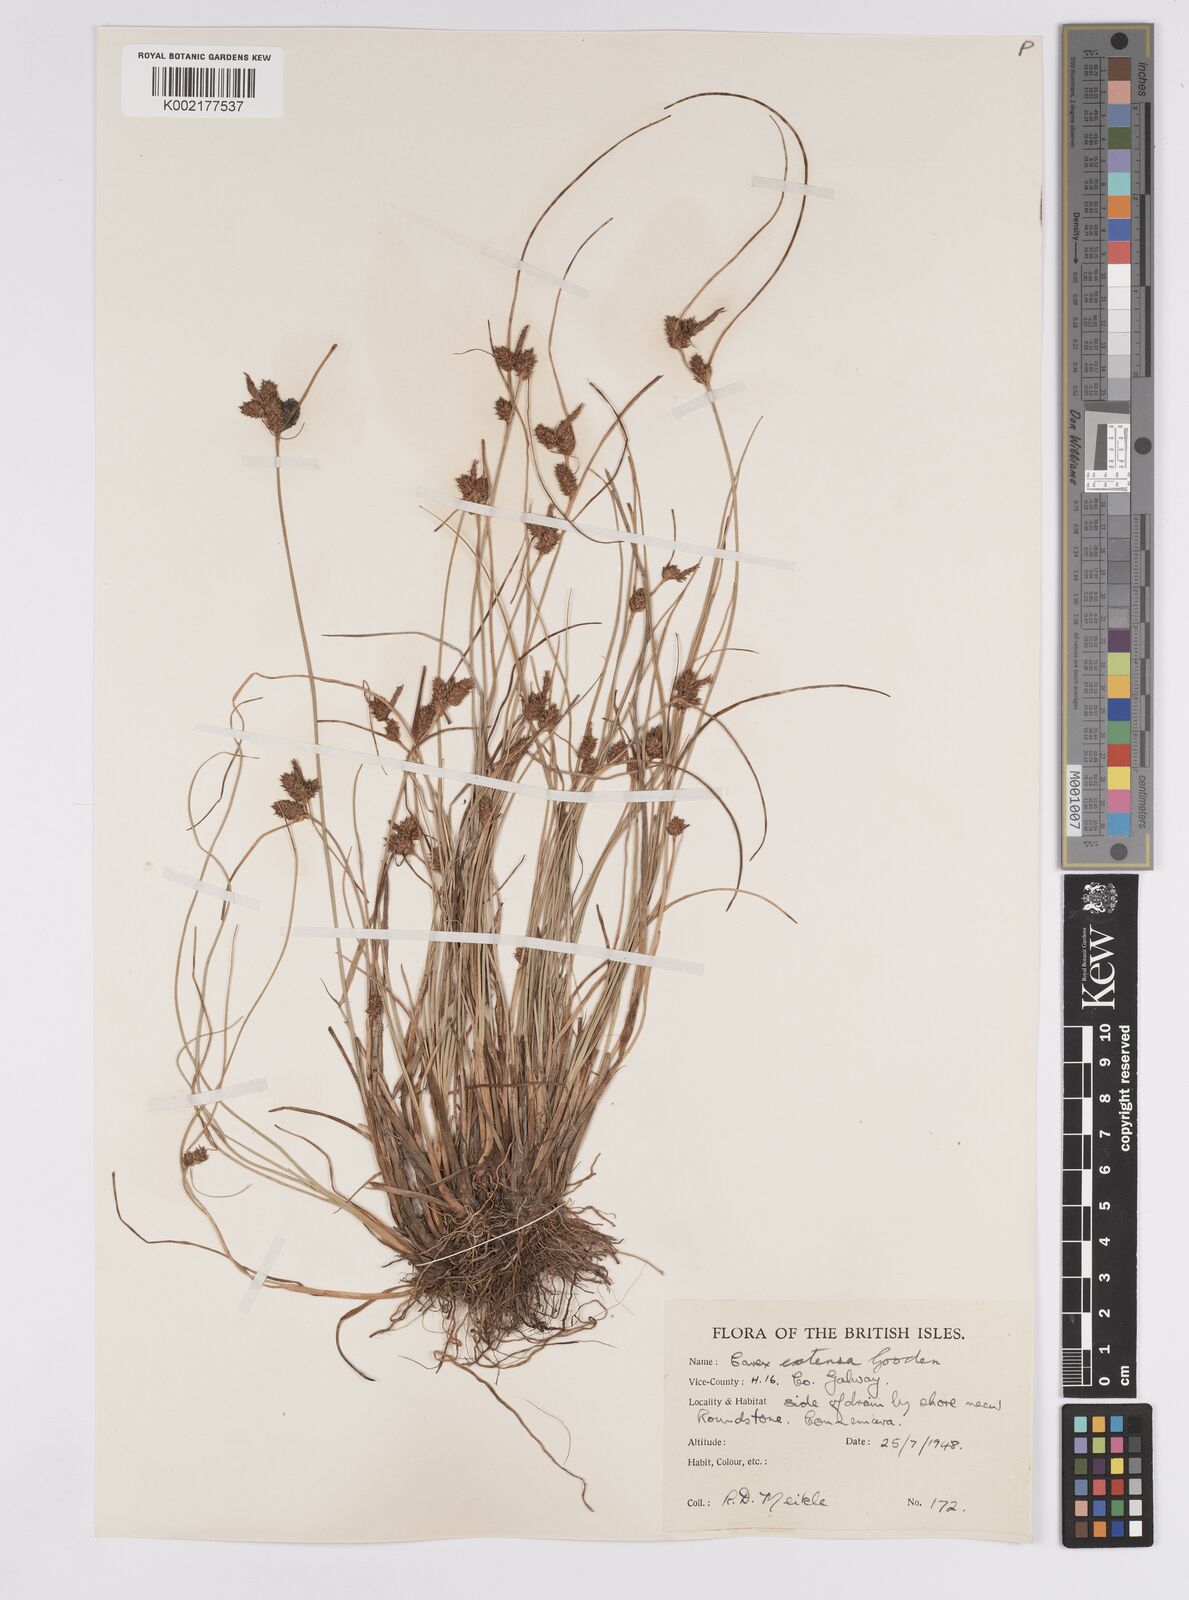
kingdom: Plantae
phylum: Tracheophyta
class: Liliopsida
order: Poales
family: Cyperaceae
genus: Carex
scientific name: Carex extensa
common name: Long-bracted sedge
